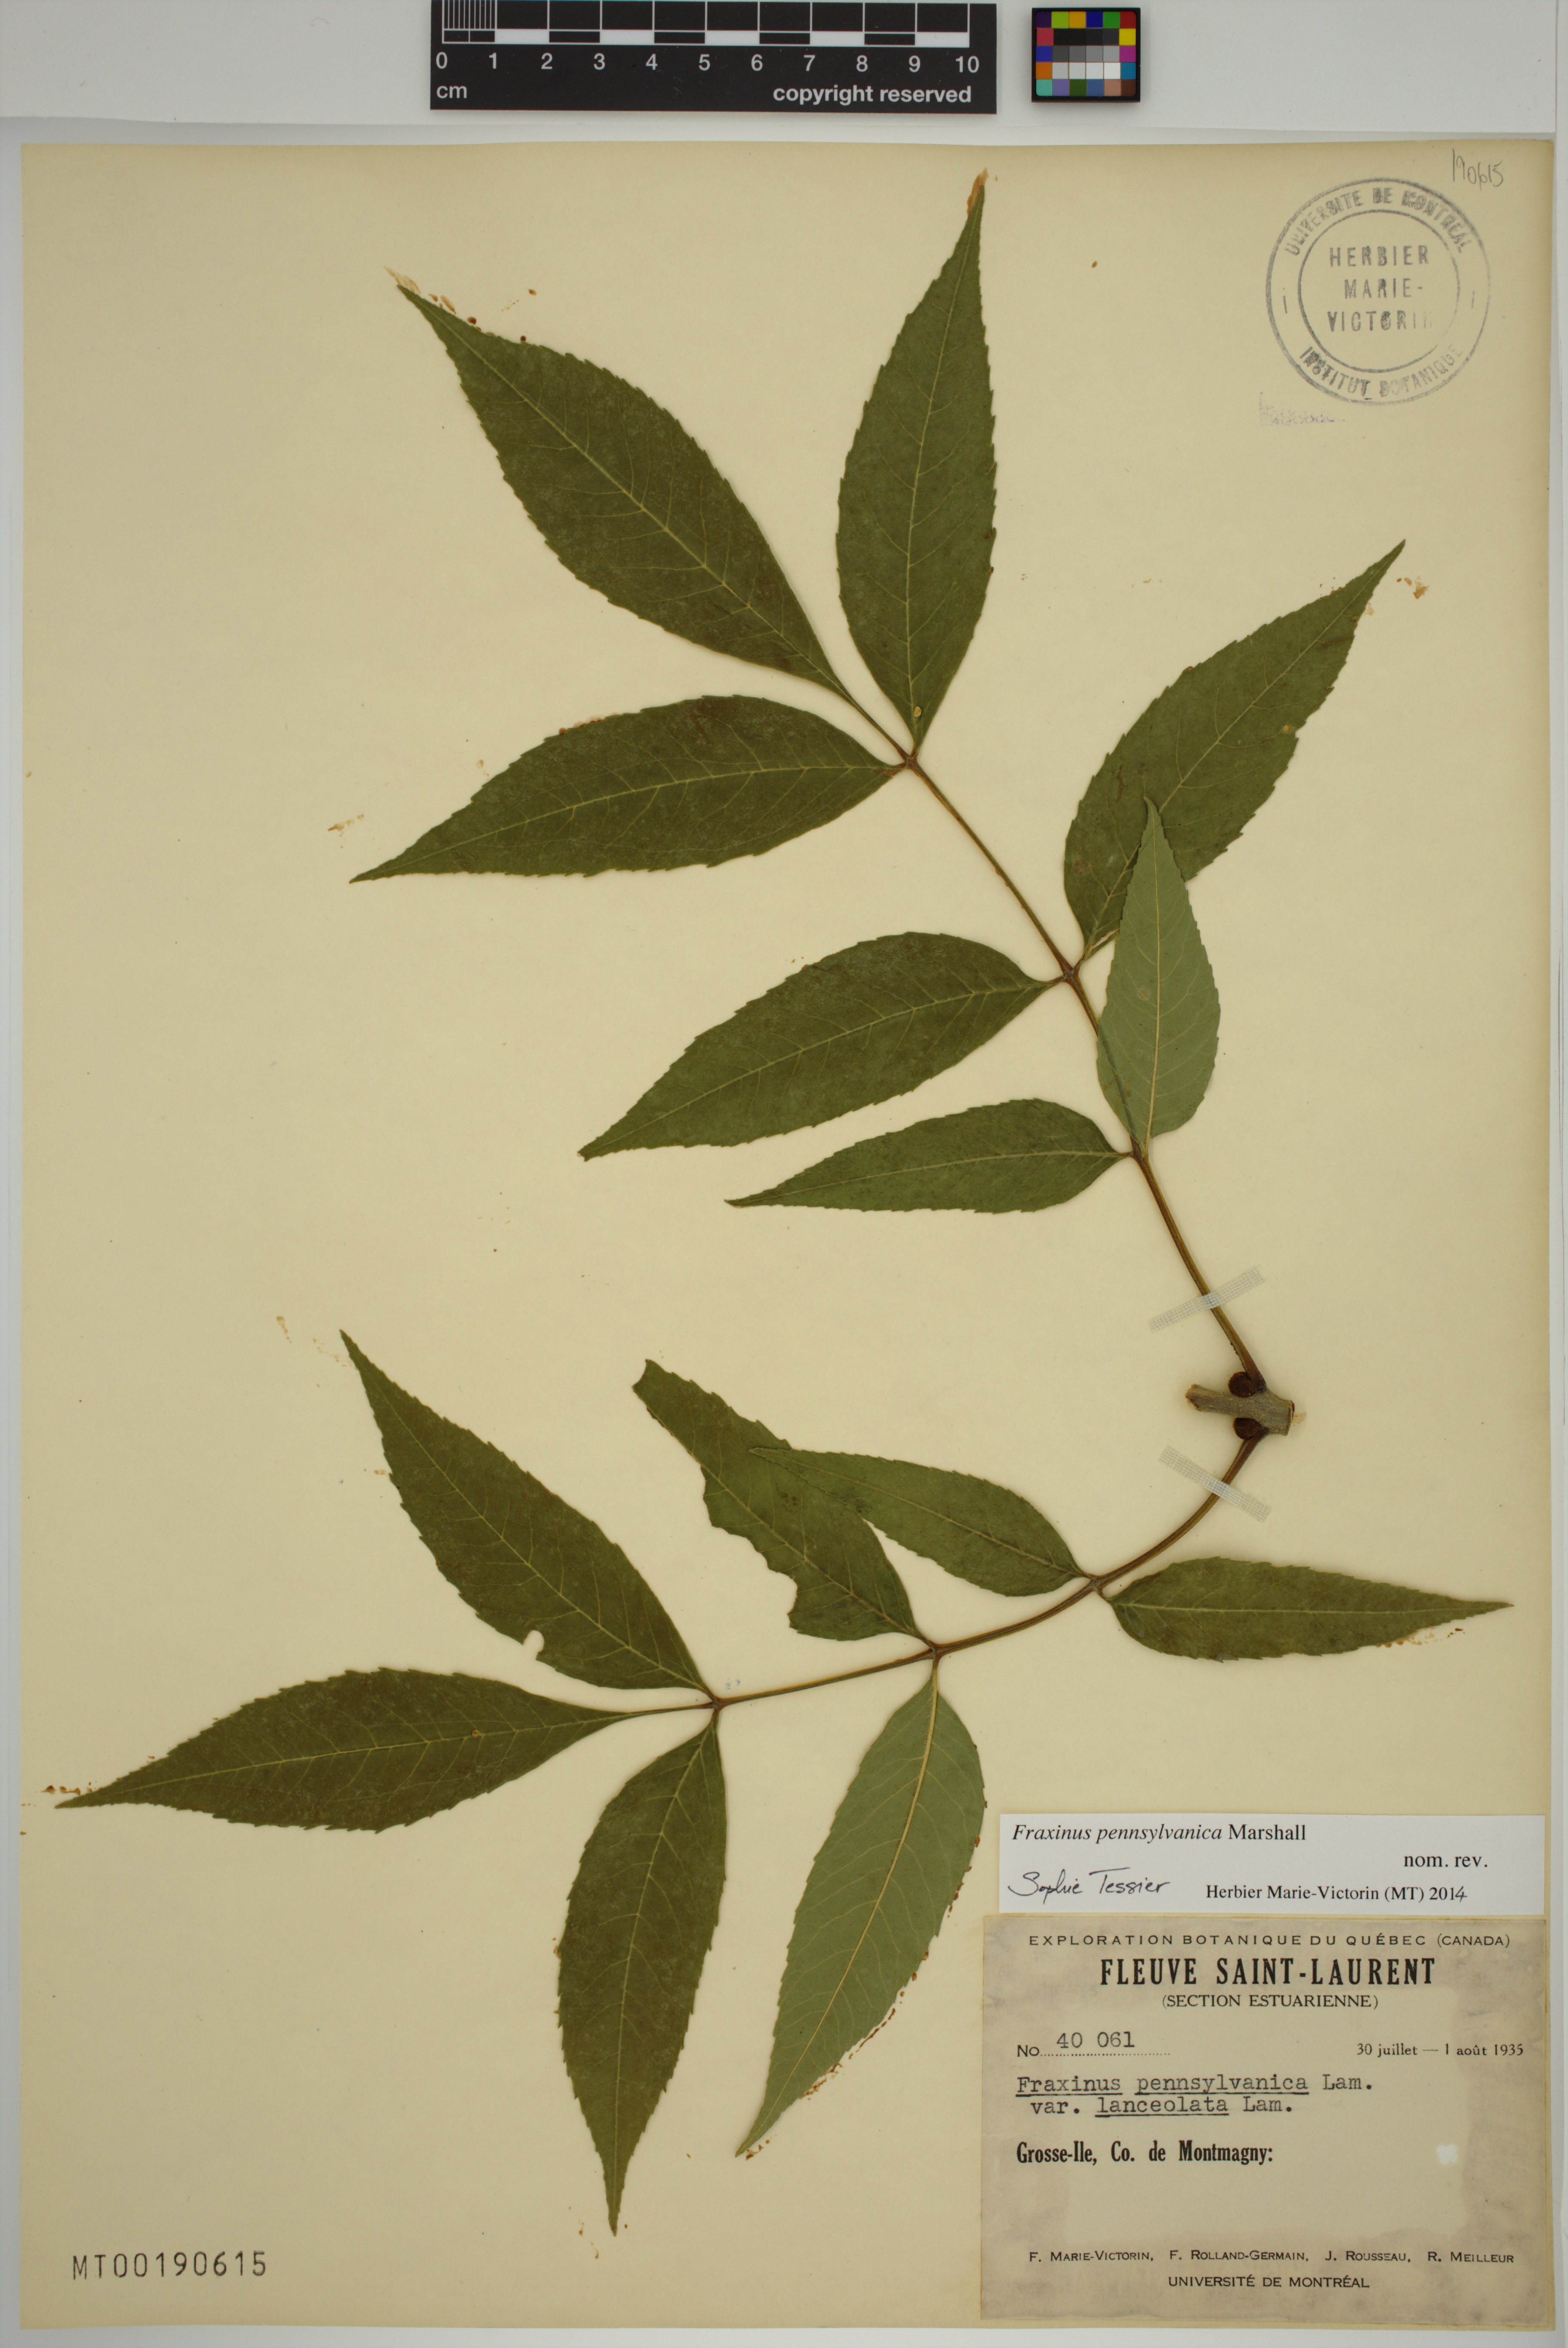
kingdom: Plantae
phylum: Tracheophyta
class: Magnoliopsida
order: Lamiales
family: Oleaceae
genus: Fraxinus
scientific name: Fraxinus pennsylvanica
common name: Green ash
